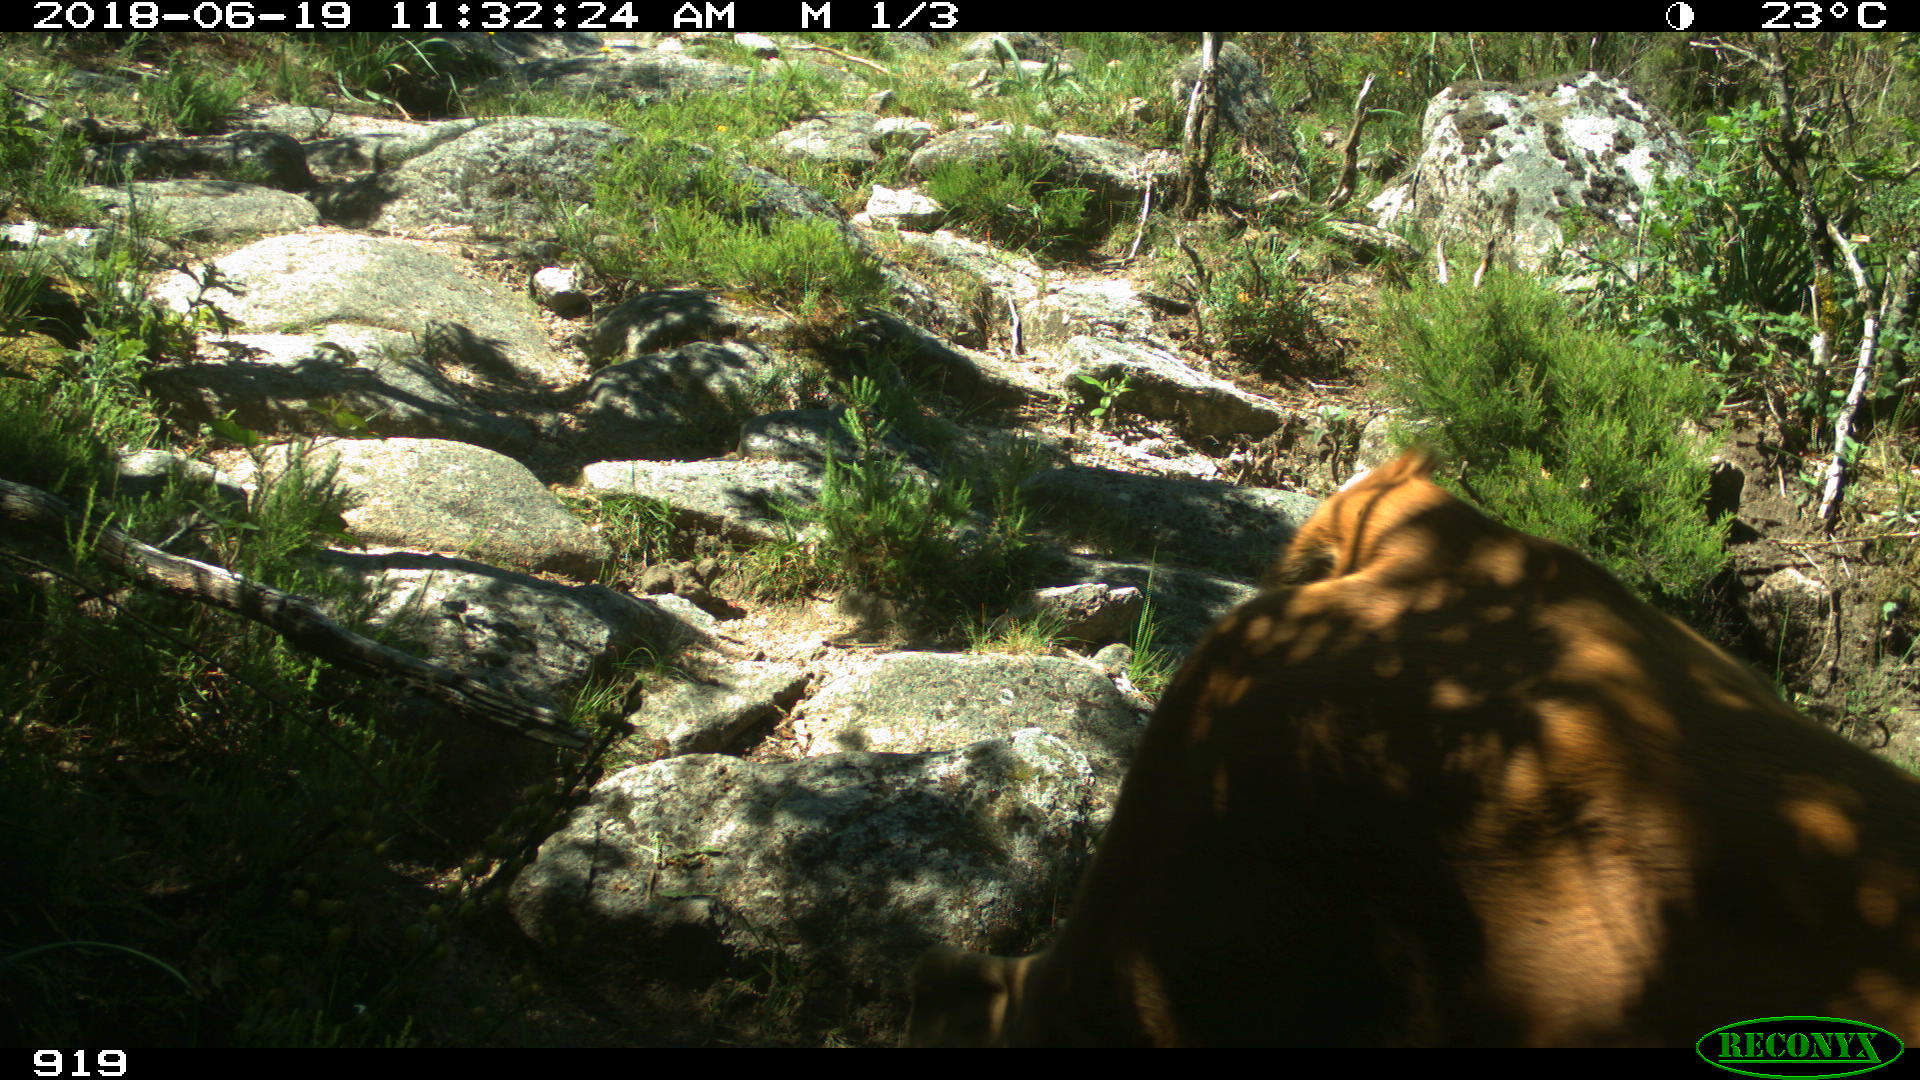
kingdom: Animalia
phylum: Chordata
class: Mammalia
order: Artiodactyla
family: Bovidae
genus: Bos
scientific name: Bos taurus
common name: Domesticated cattle
